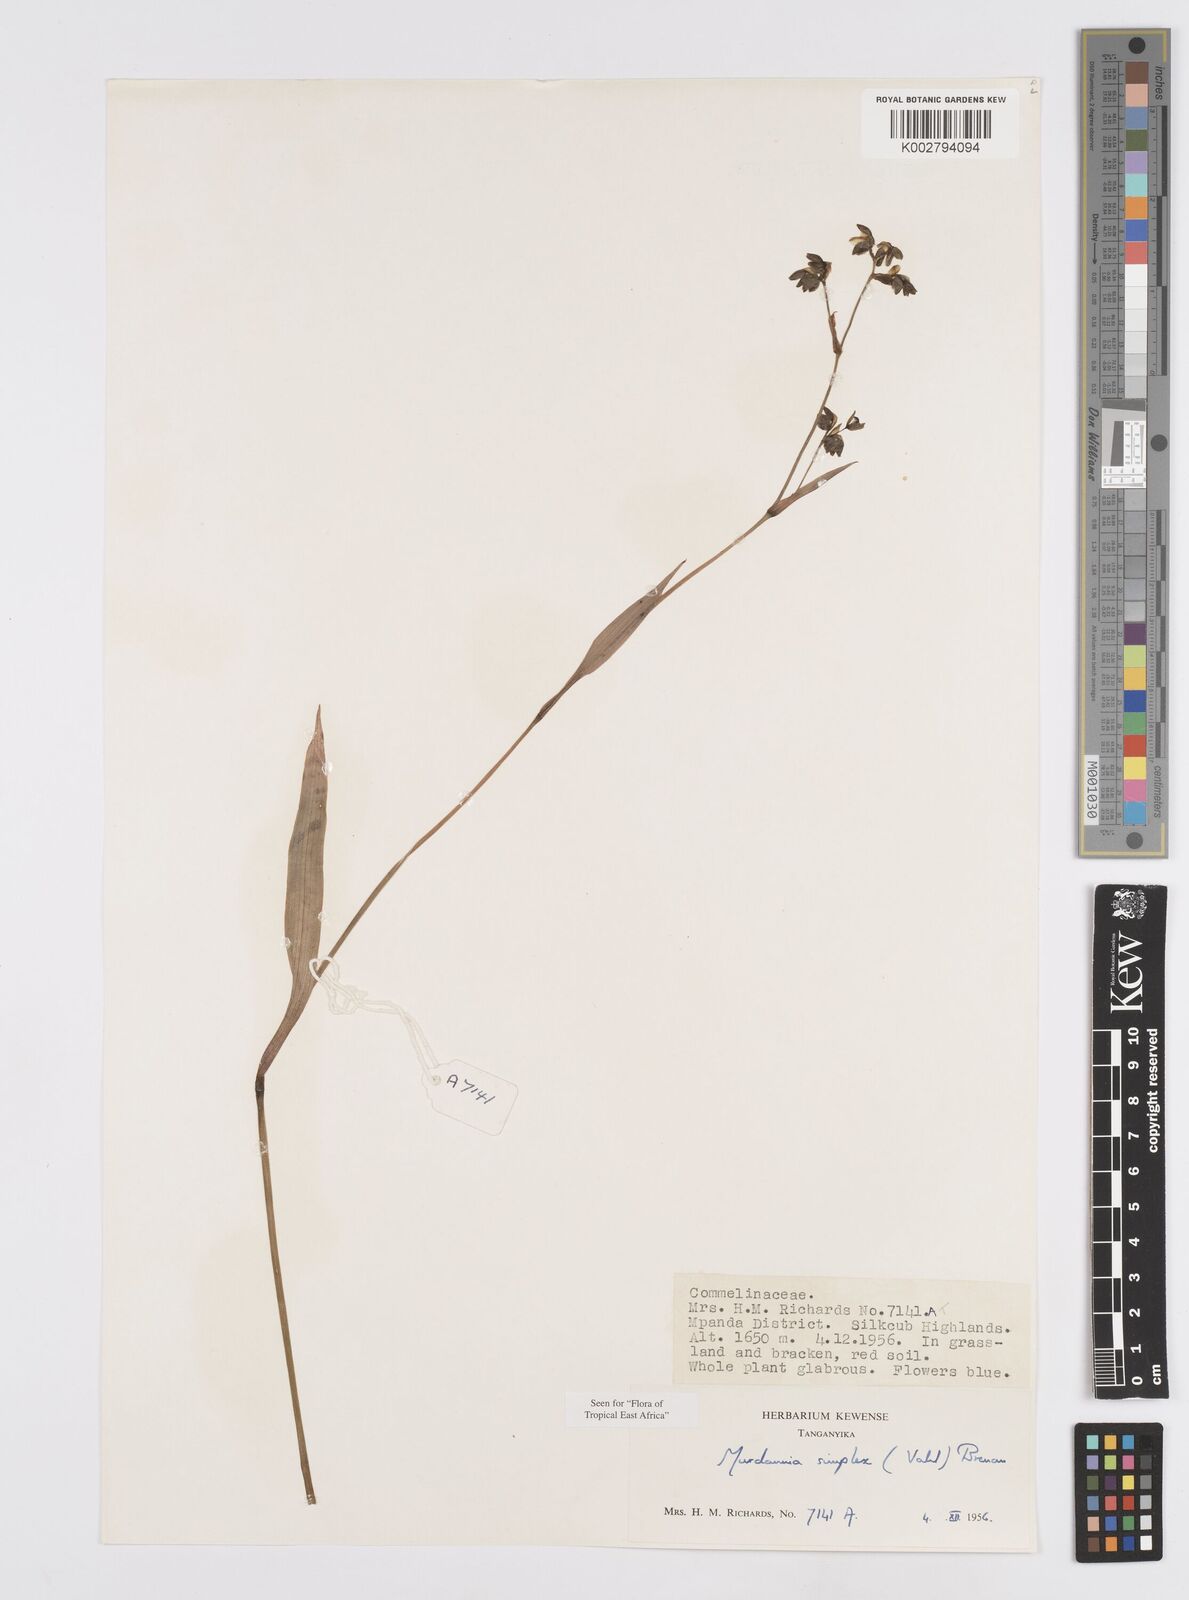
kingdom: Plantae
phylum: Tracheophyta
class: Liliopsida
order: Commelinales
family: Commelinaceae
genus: Murdannia
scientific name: Murdannia simplex
